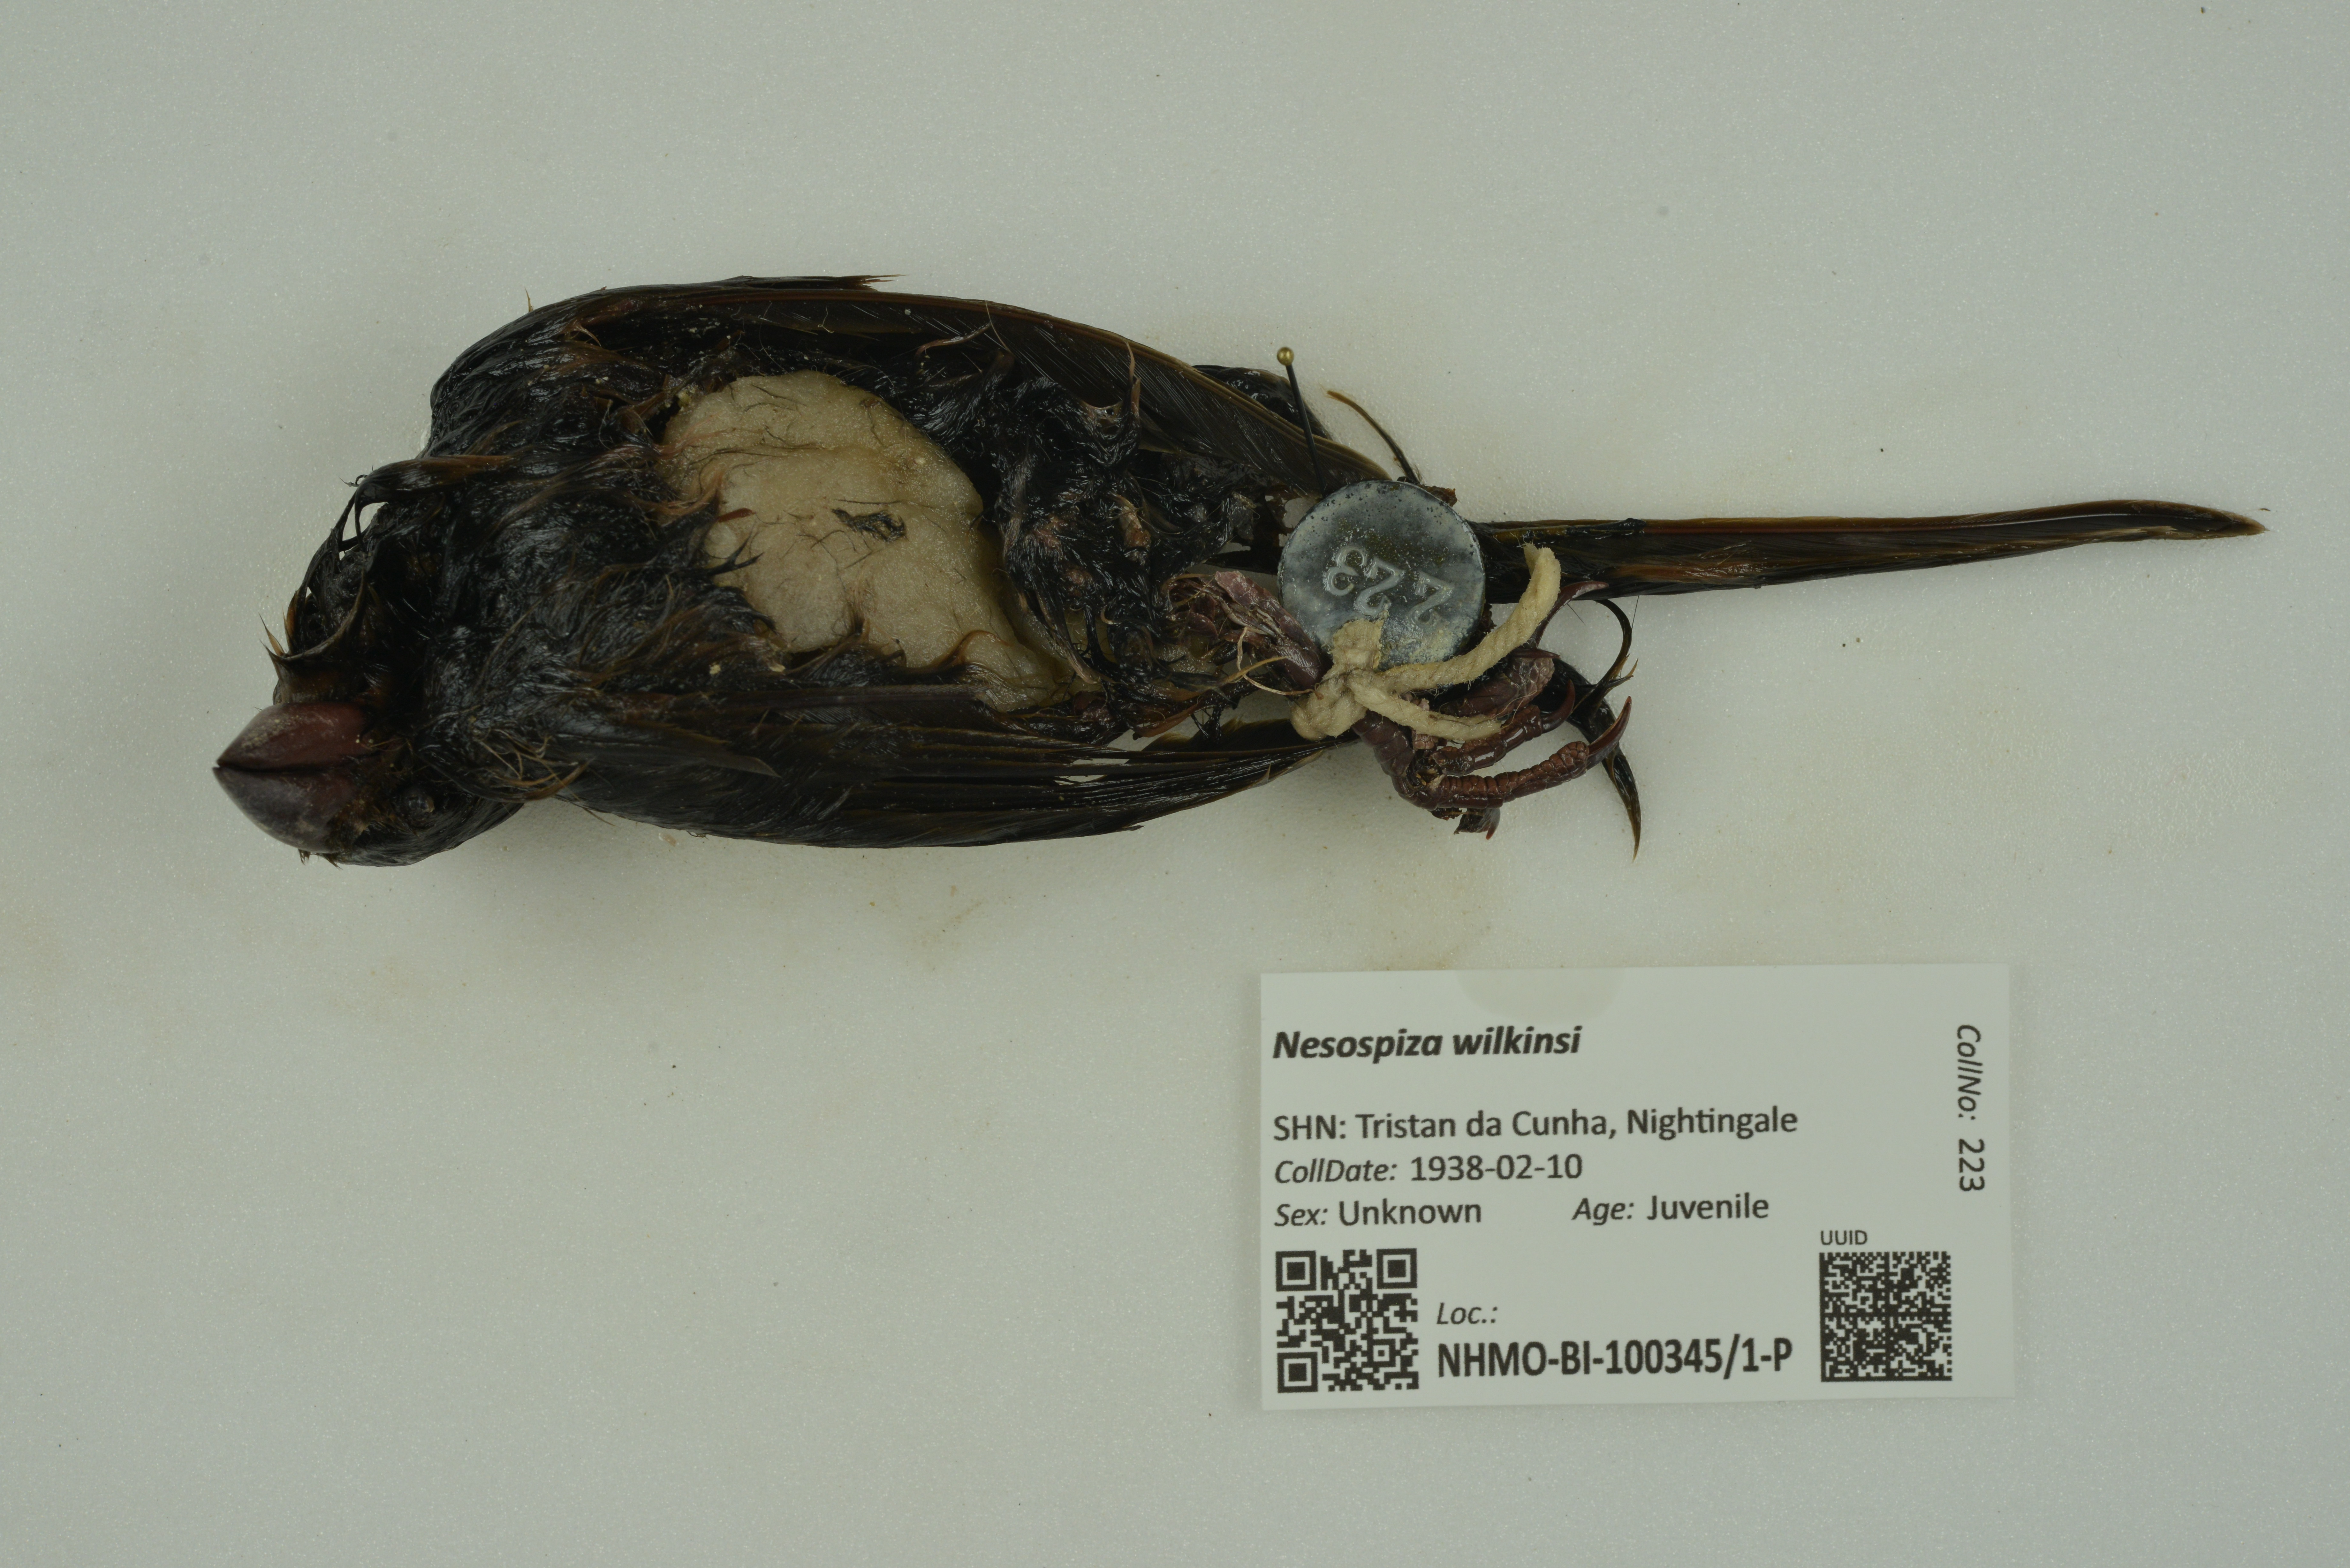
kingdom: Animalia
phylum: Chordata
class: Aves
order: Passeriformes
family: Thraupidae
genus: Nesospiza
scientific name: Nesospiza wilkinsi
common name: Wilkins's finch
